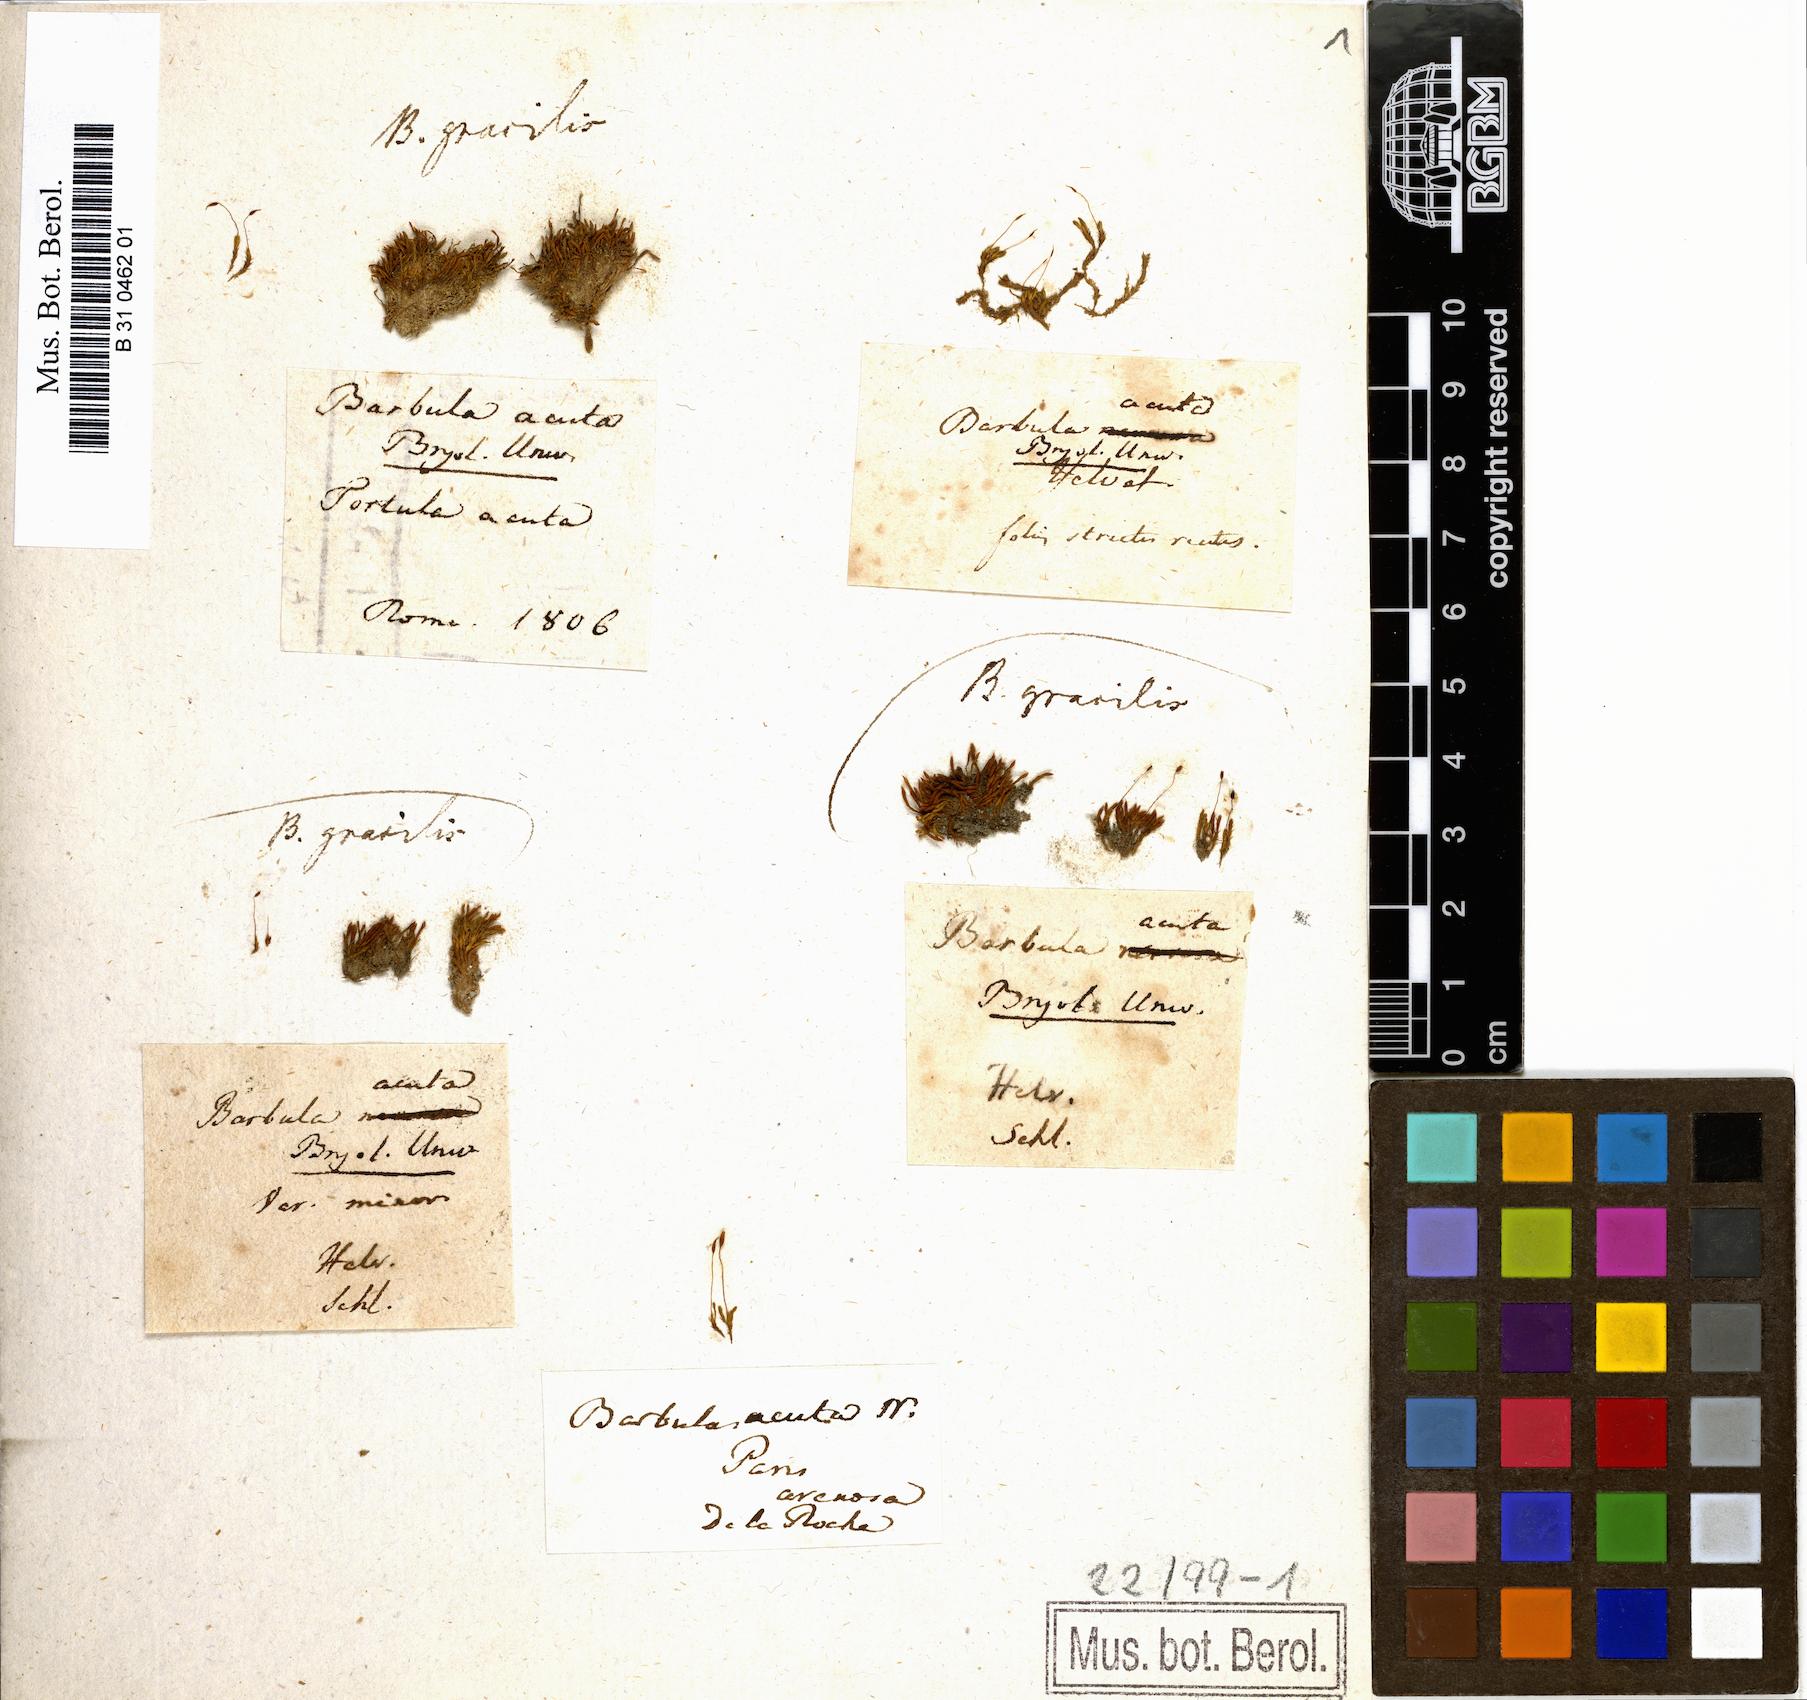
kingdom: Plantae
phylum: Bryophyta
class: Bryopsida
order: Pottiales
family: Pottiaceae
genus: Didymodon
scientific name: Didymodon acutus
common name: Pointed beard moss
